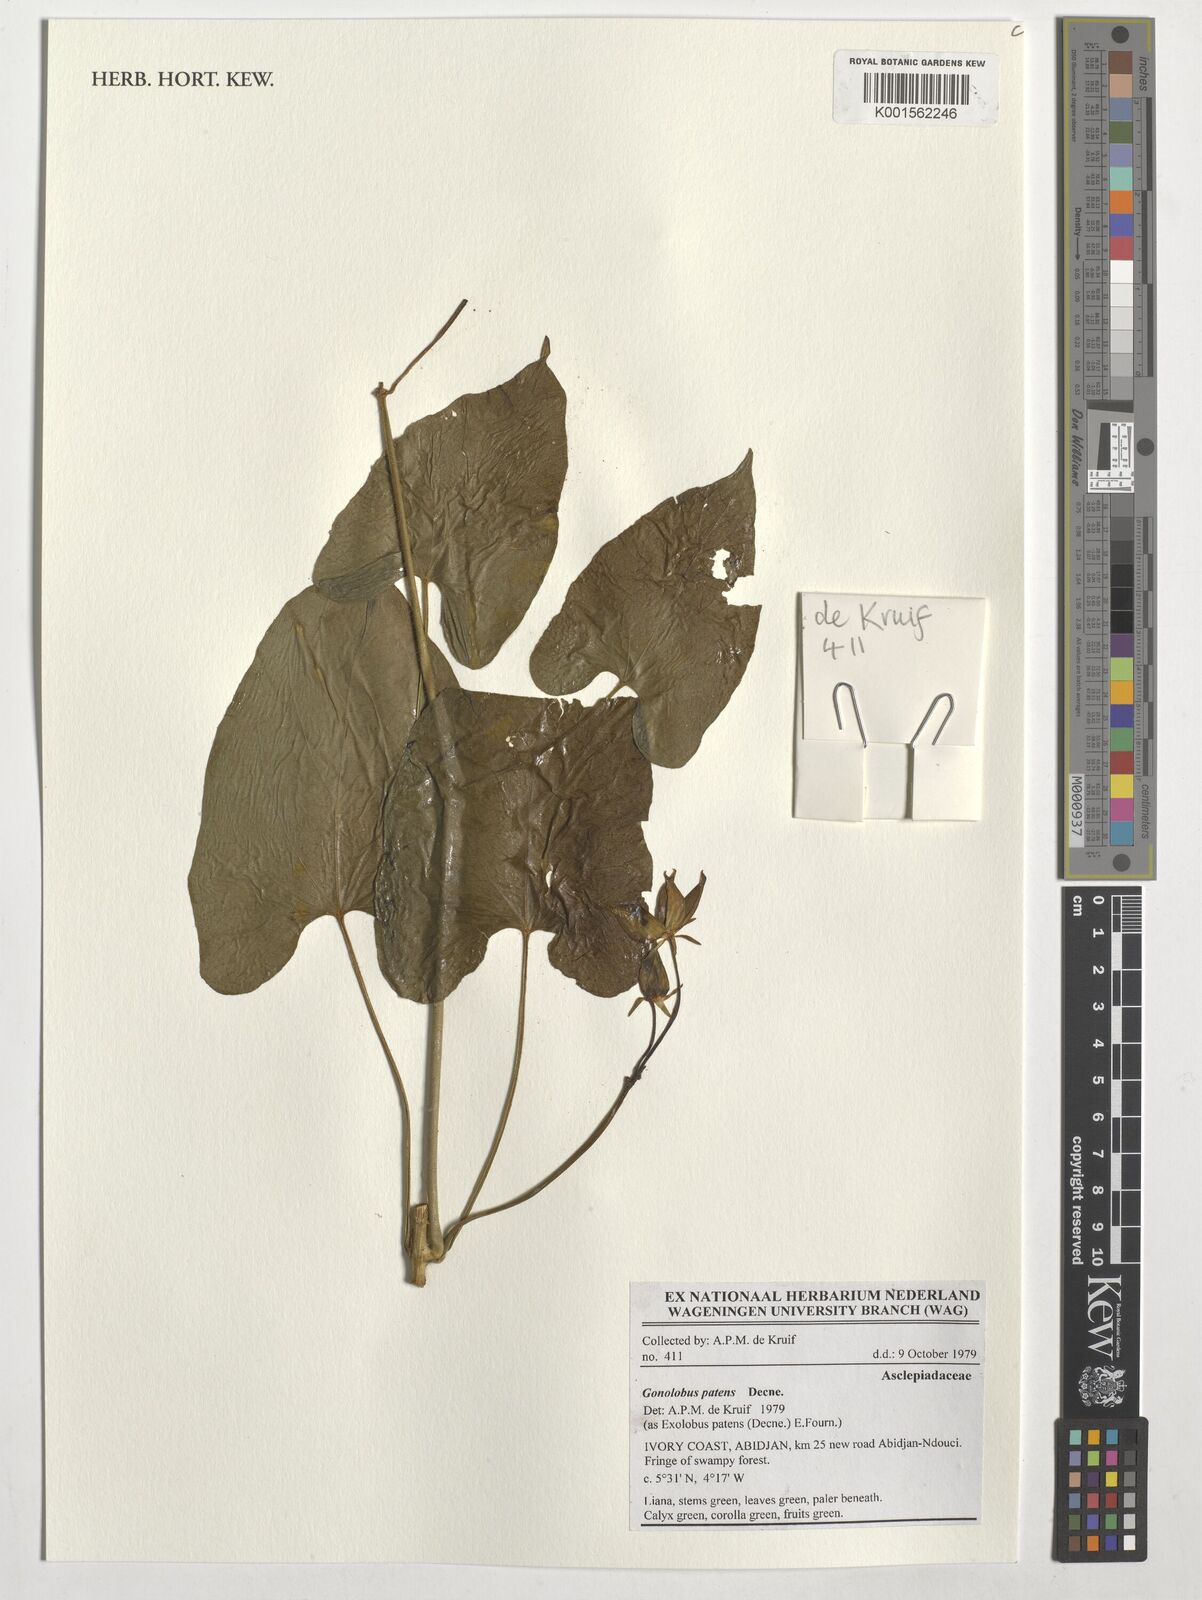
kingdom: Plantae
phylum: Tracheophyta
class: Magnoliopsida
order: Gentianales
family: Apocynaceae
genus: Gonolobus
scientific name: Gonolobus rostratus
